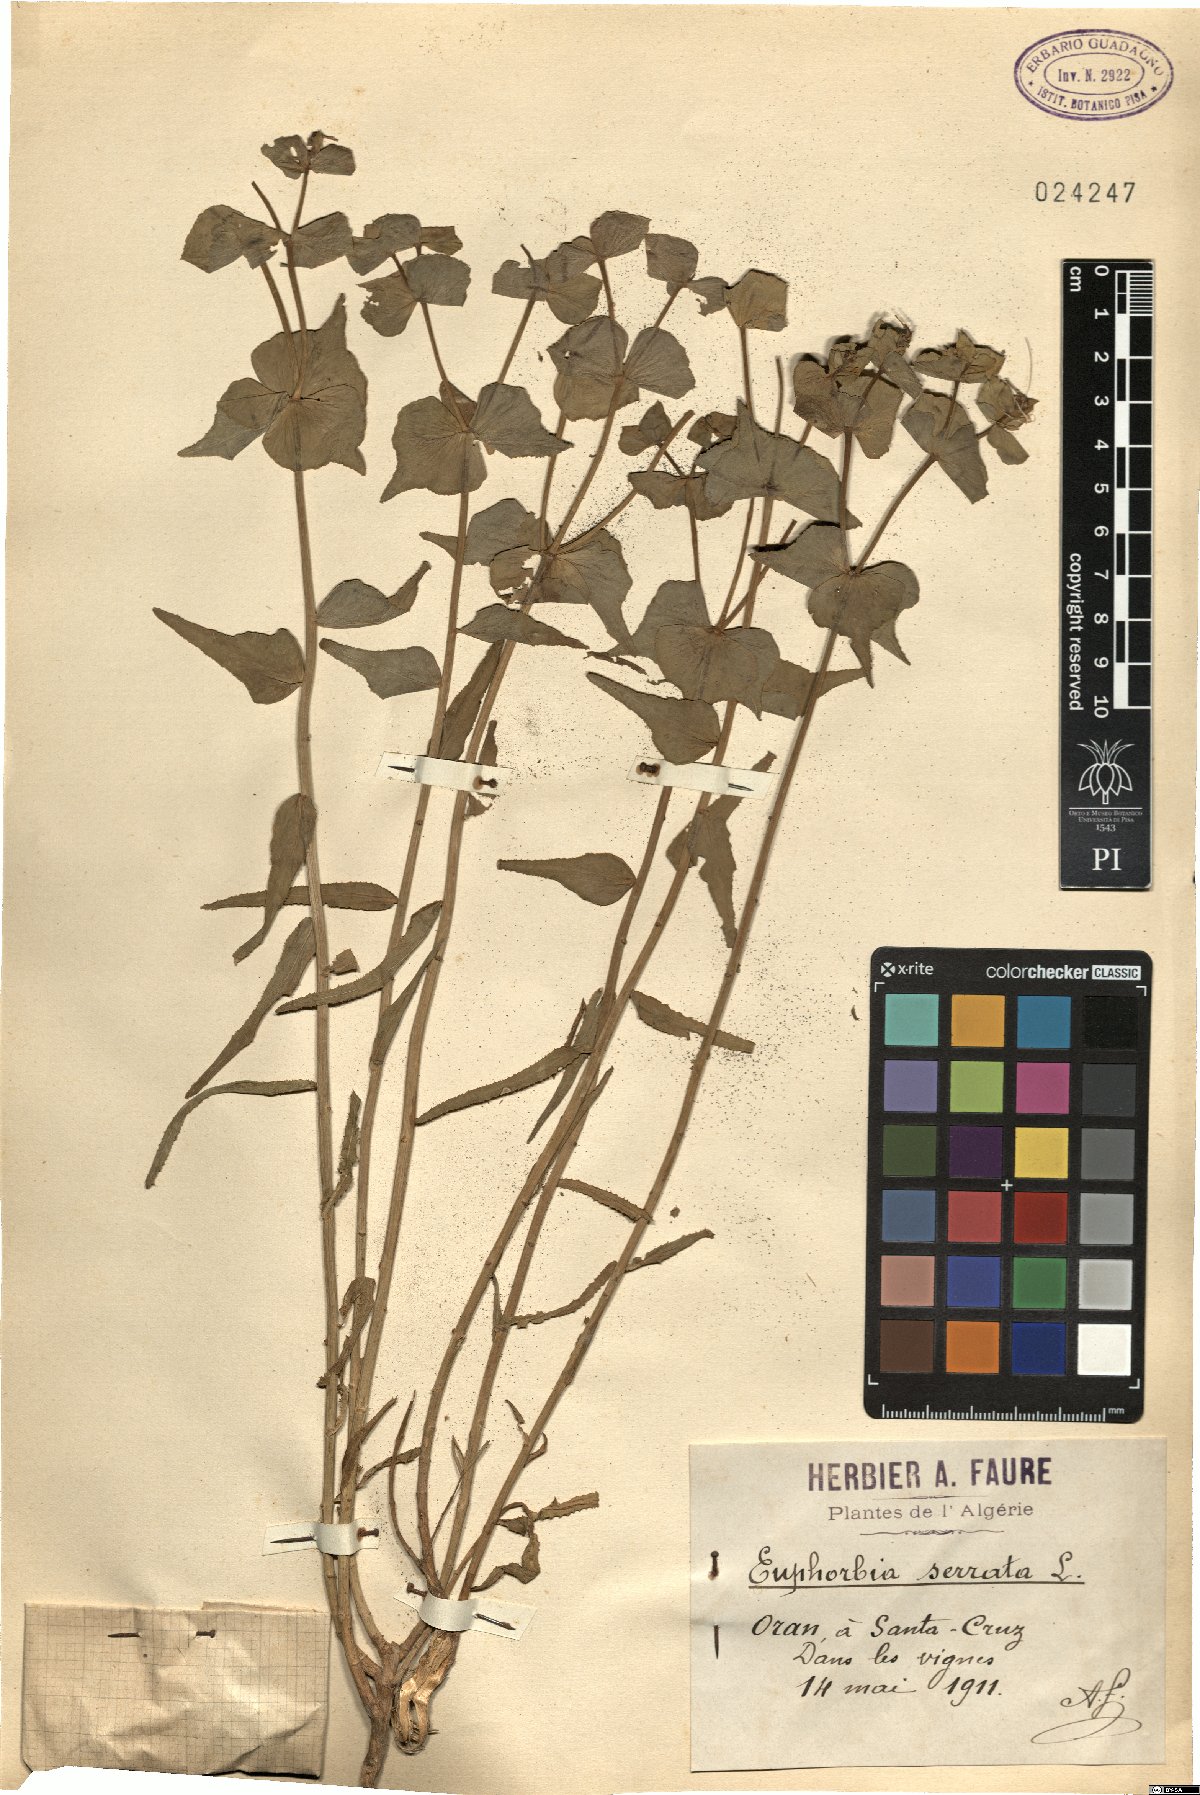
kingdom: Plantae
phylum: Tracheophyta
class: Magnoliopsida
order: Malpighiales
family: Euphorbiaceae
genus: Euphorbia
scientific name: Euphorbia serrata
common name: Serrate spurge
